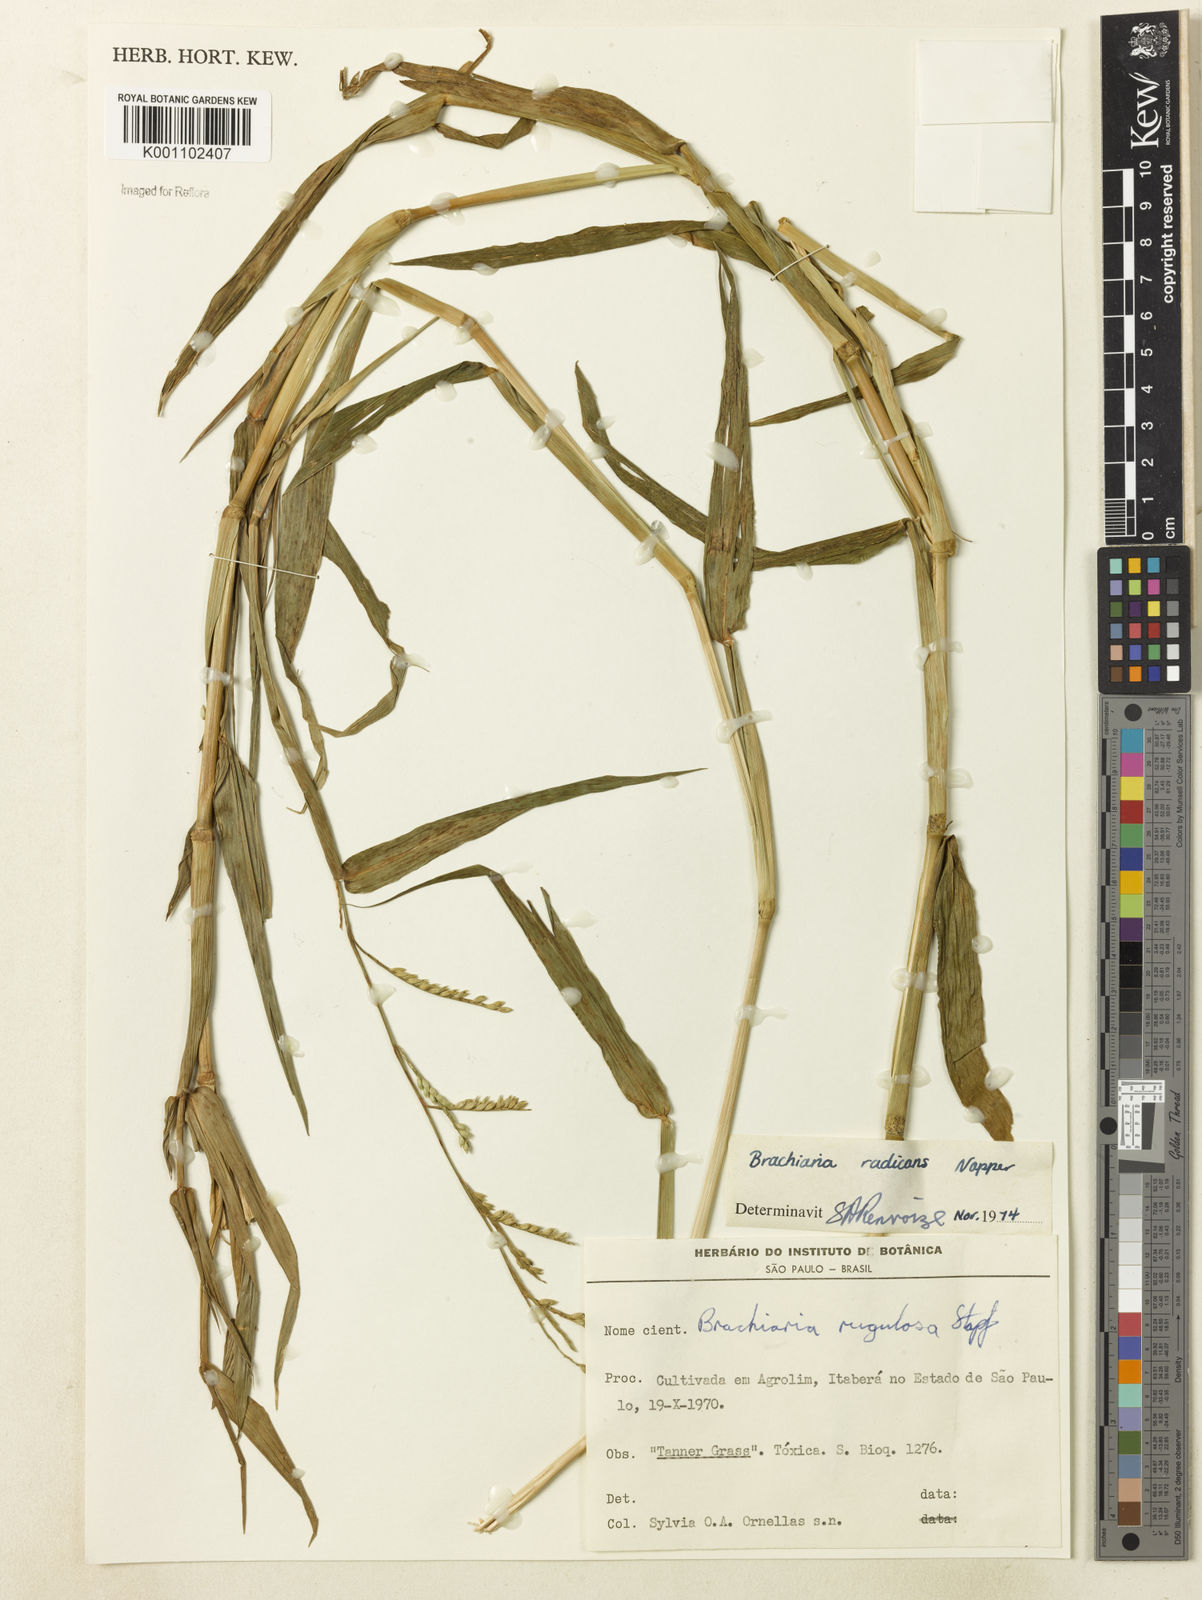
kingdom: Plantae
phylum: Tracheophyta
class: Liliopsida
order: Poales
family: Poaceae
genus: Urochloa
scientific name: Urochloa arrecta
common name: African signalgrass
